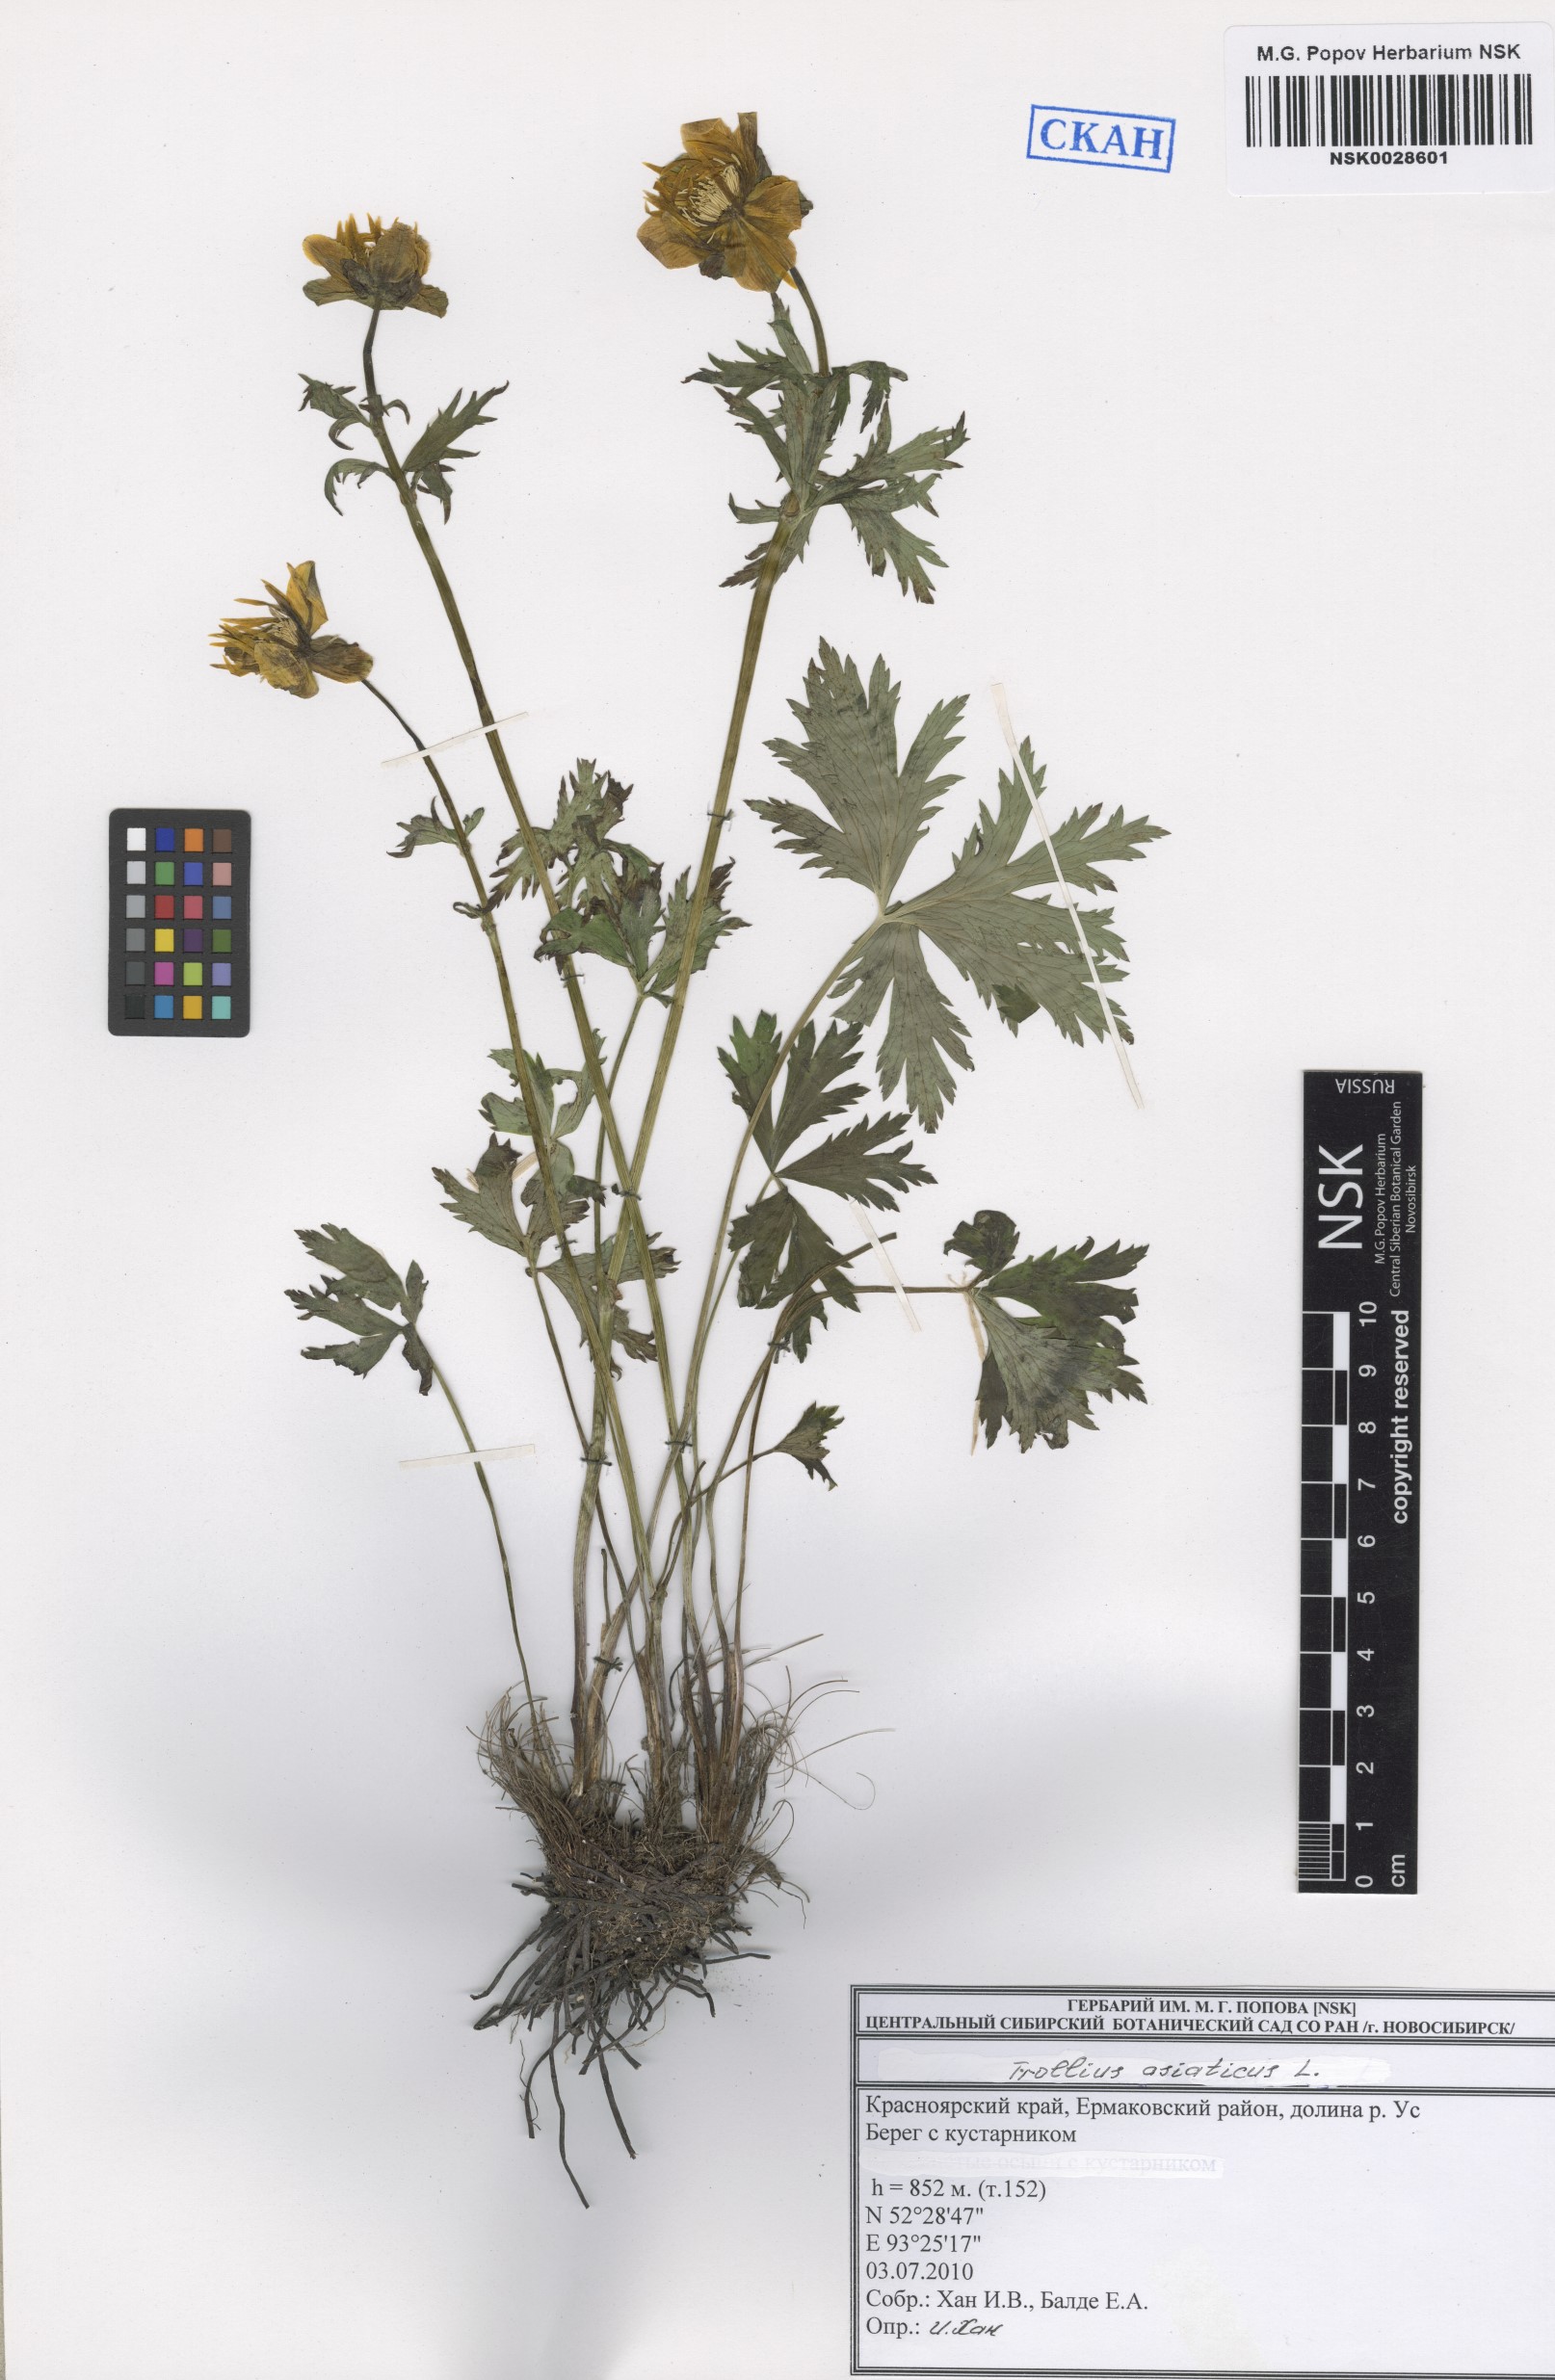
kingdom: Plantae
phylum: Tracheophyta
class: Magnoliopsida
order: Ranunculales
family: Ranunculaceae
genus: Trollius
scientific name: Trollius asiaticus
